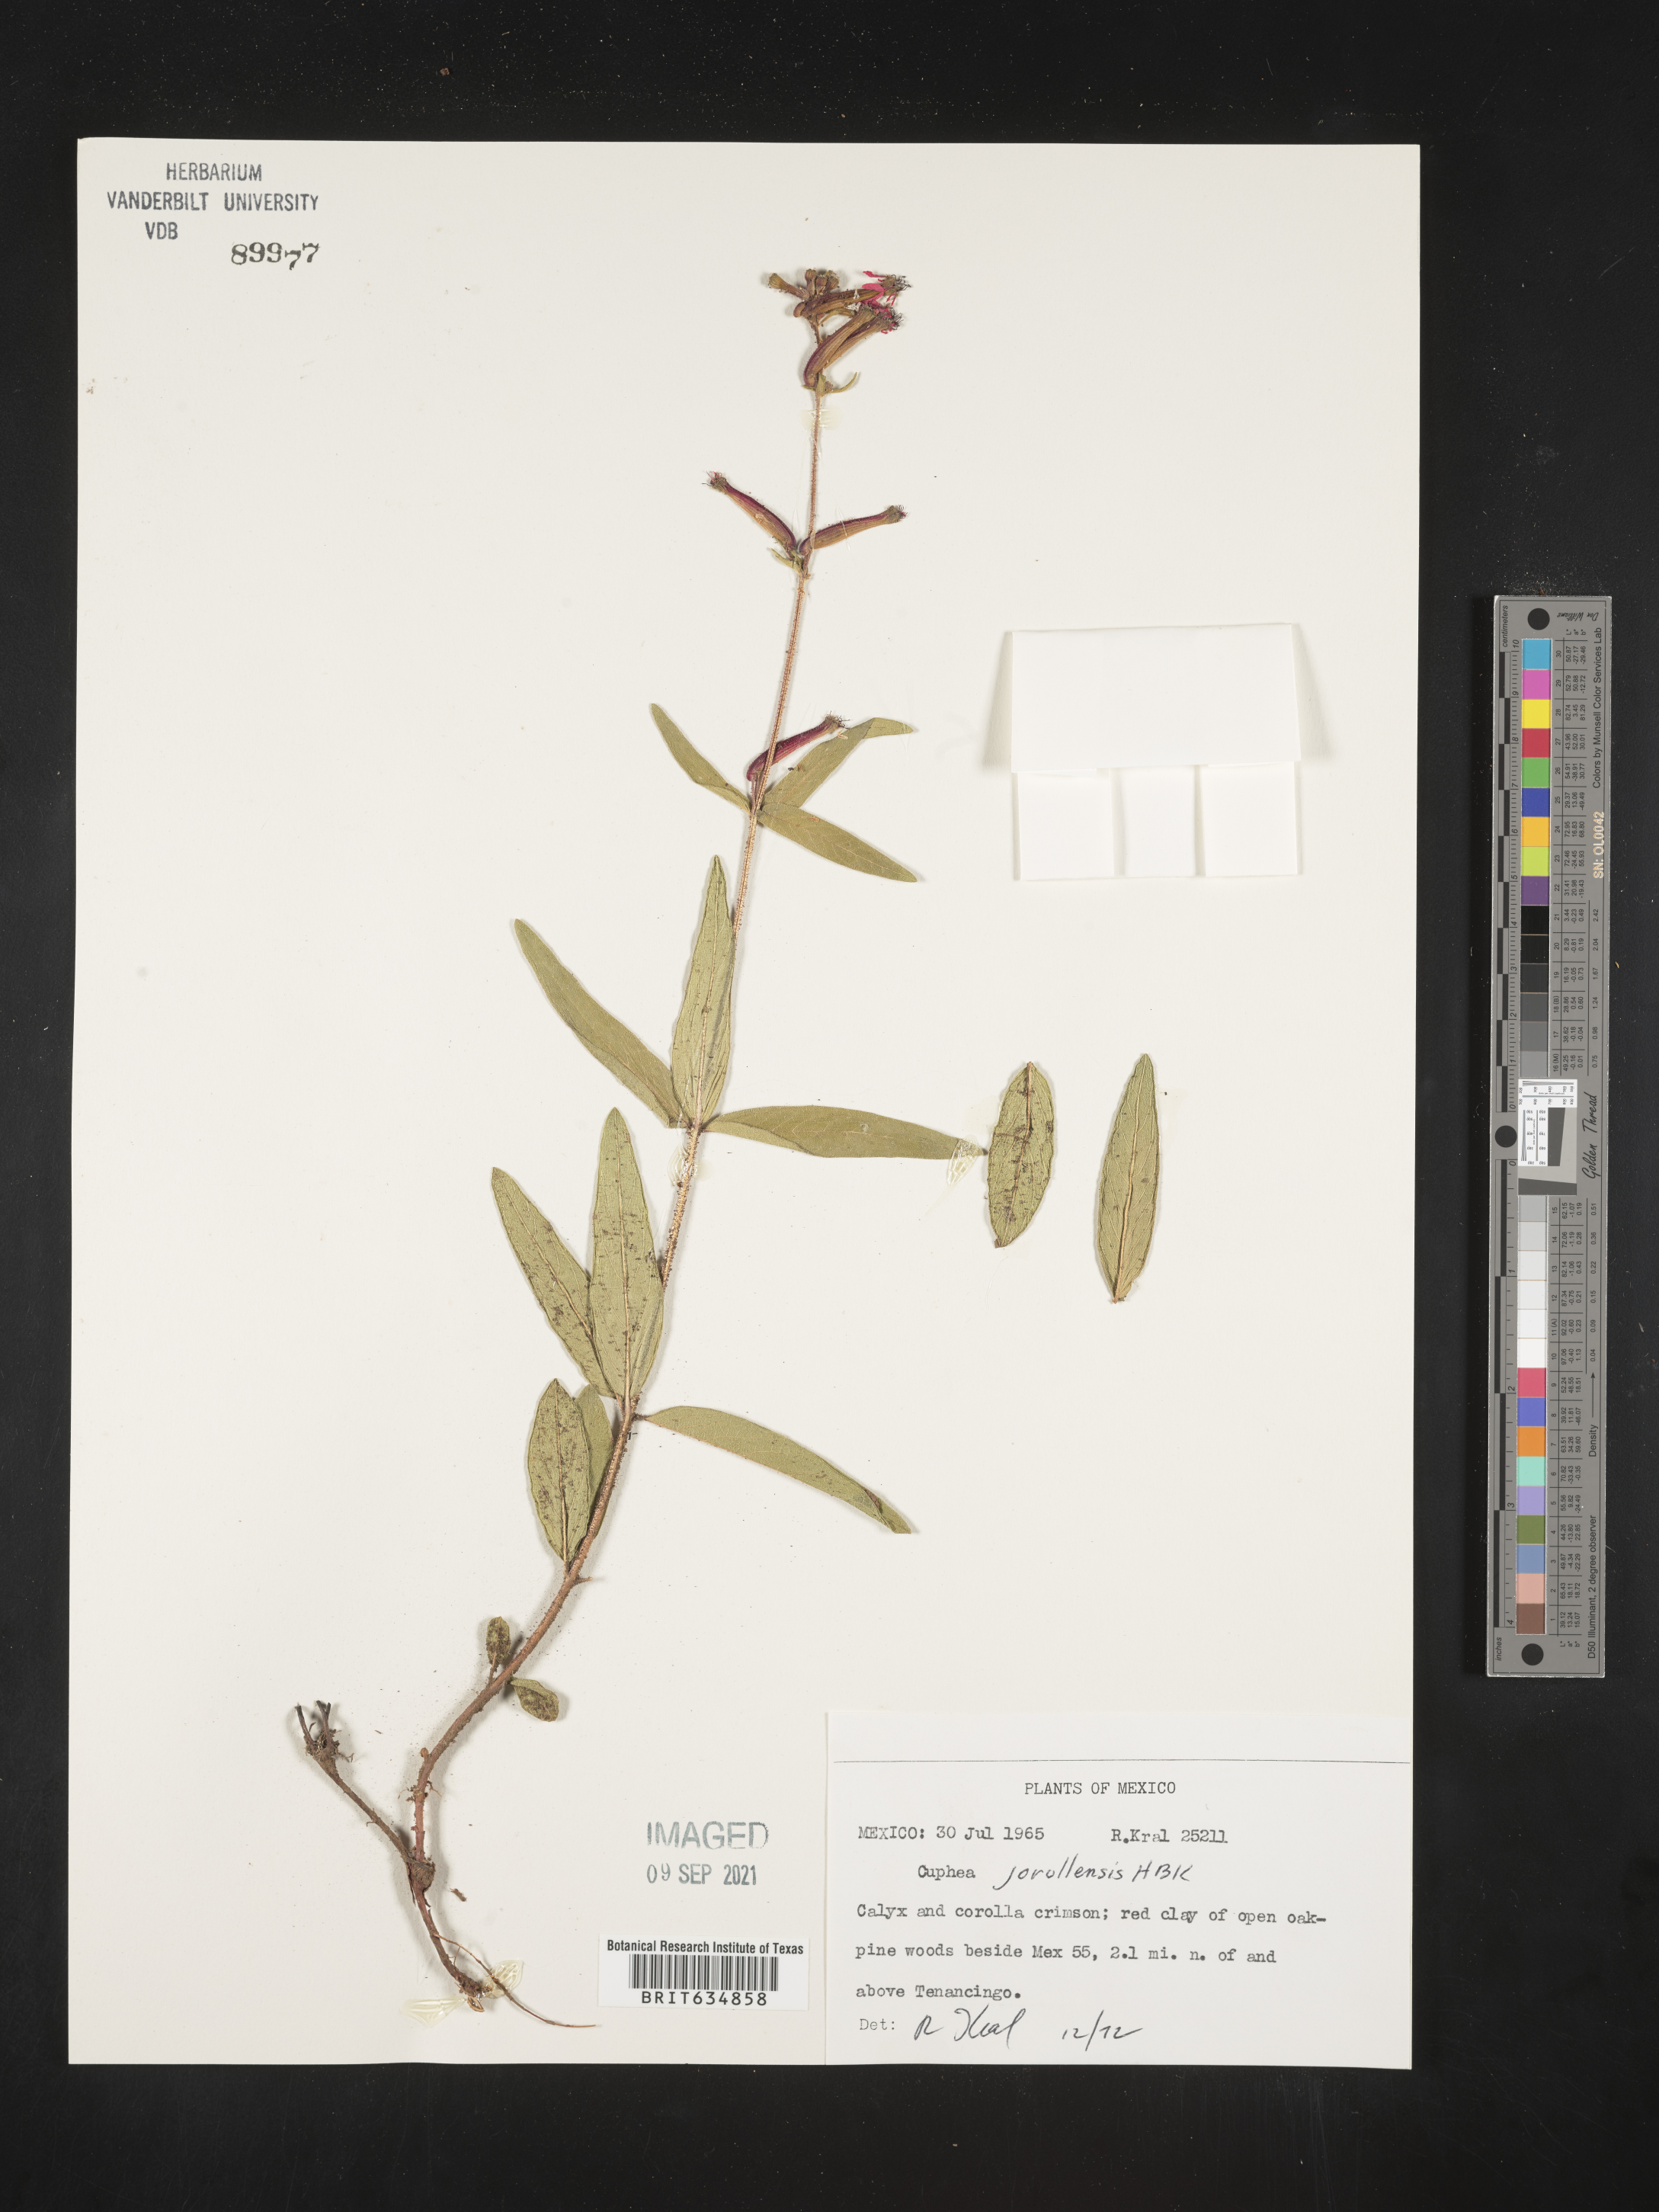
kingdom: Plantae
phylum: Tracheophyta
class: Magnoliopsida
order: Myrtales
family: Lythraceae
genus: Cuphea
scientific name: Cuphea
